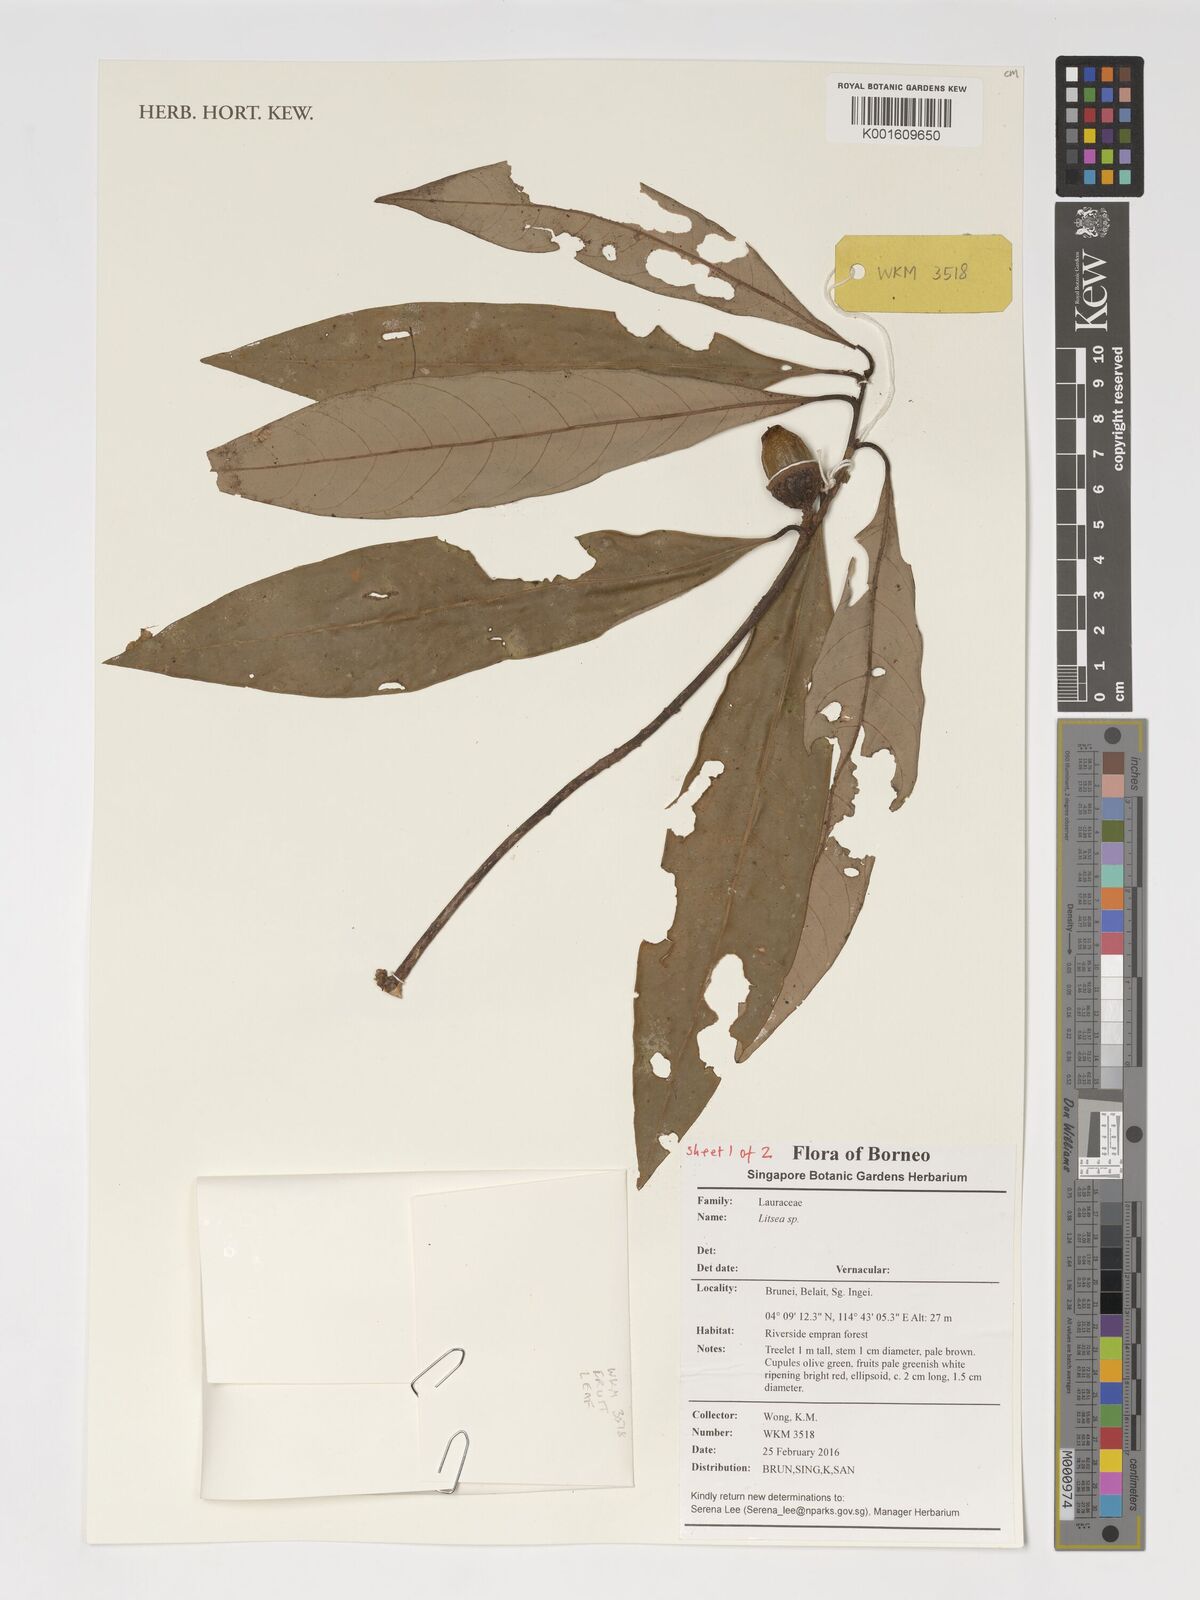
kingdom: Plantae
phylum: Tracheophyta
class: Magnoliopsida
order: Laurales
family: Lauraceae
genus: Litsea
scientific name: Litsea
